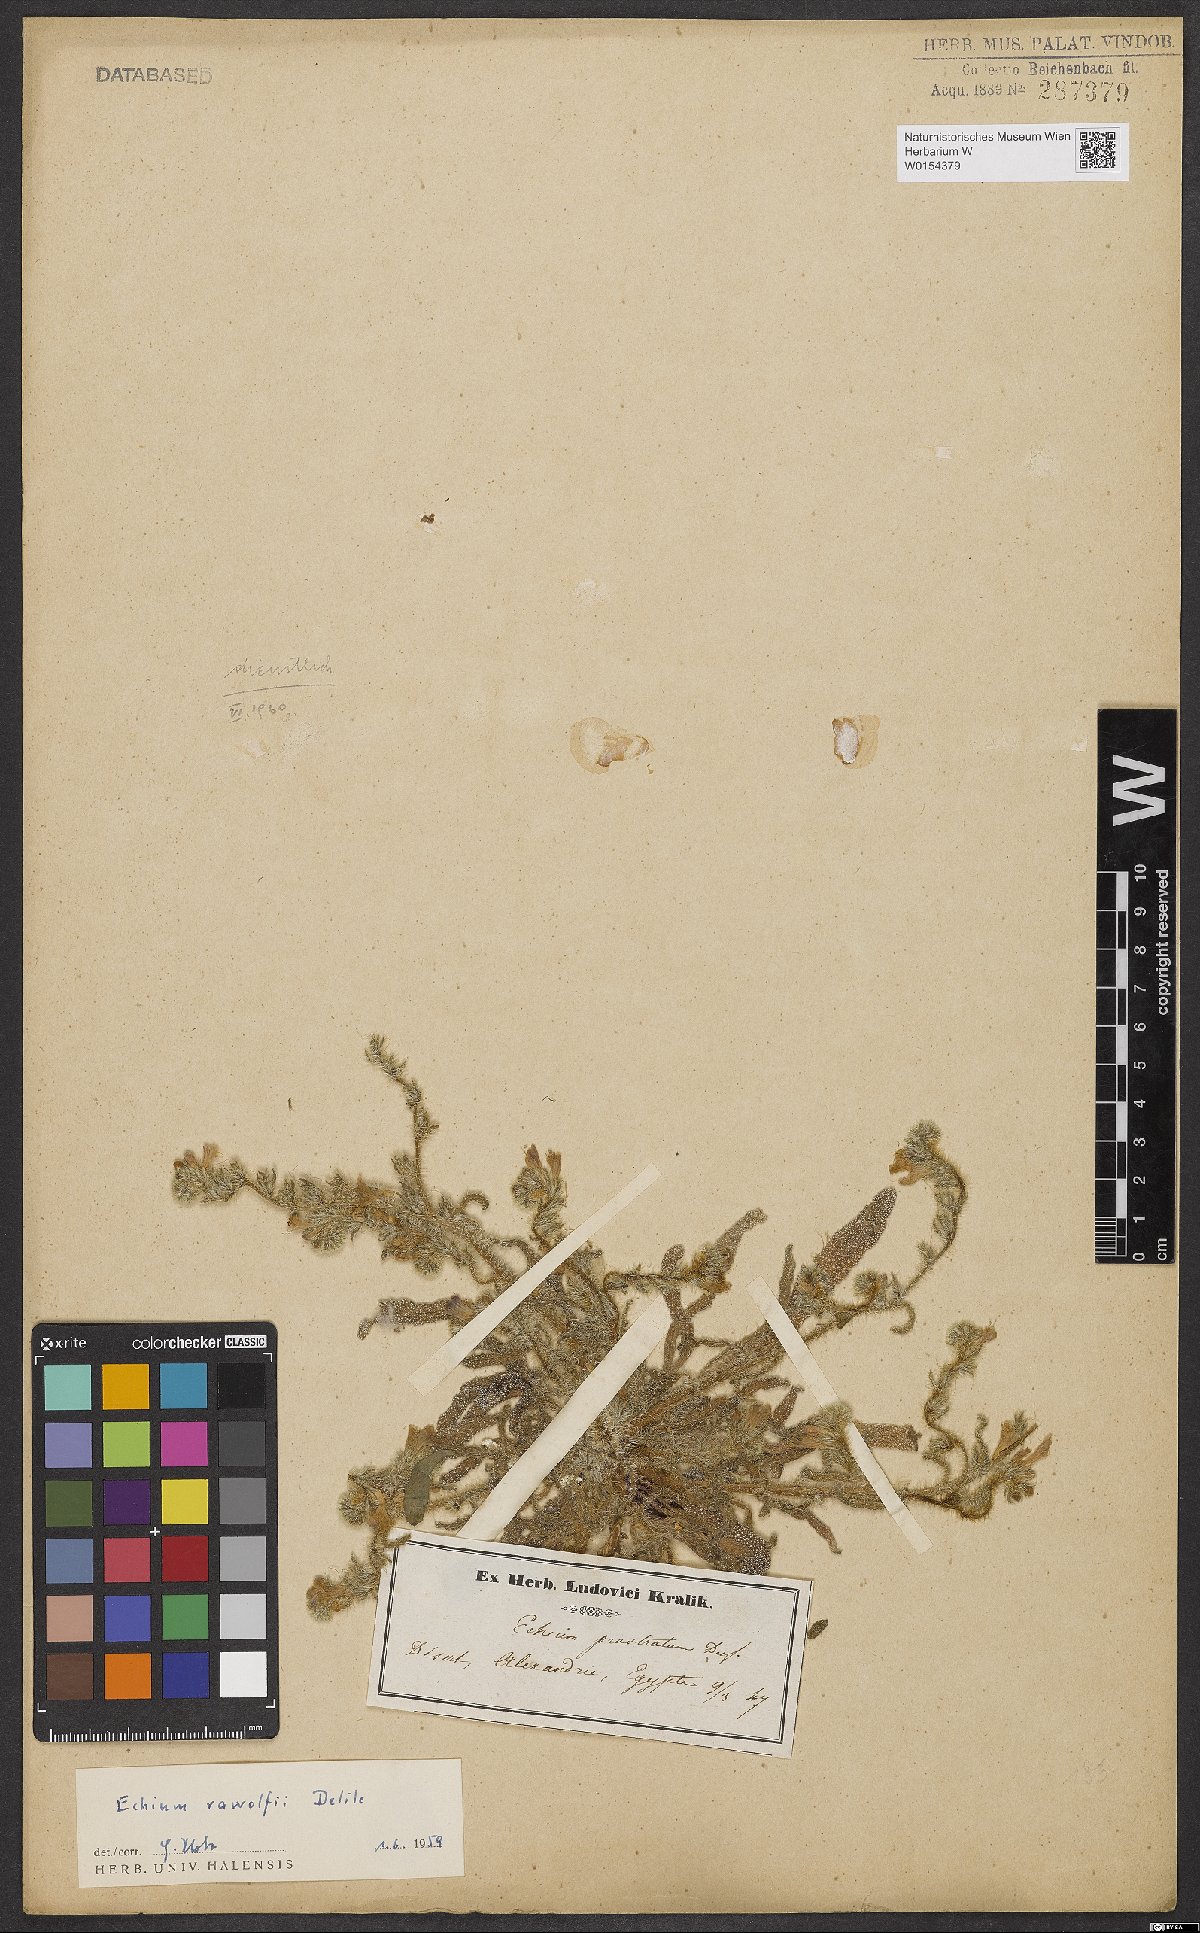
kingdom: Plantae
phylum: Tracheophyta
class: Magnoliopsida
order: Boraginales
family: Boraginaceae
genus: Echium
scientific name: Echium rauwolfii
